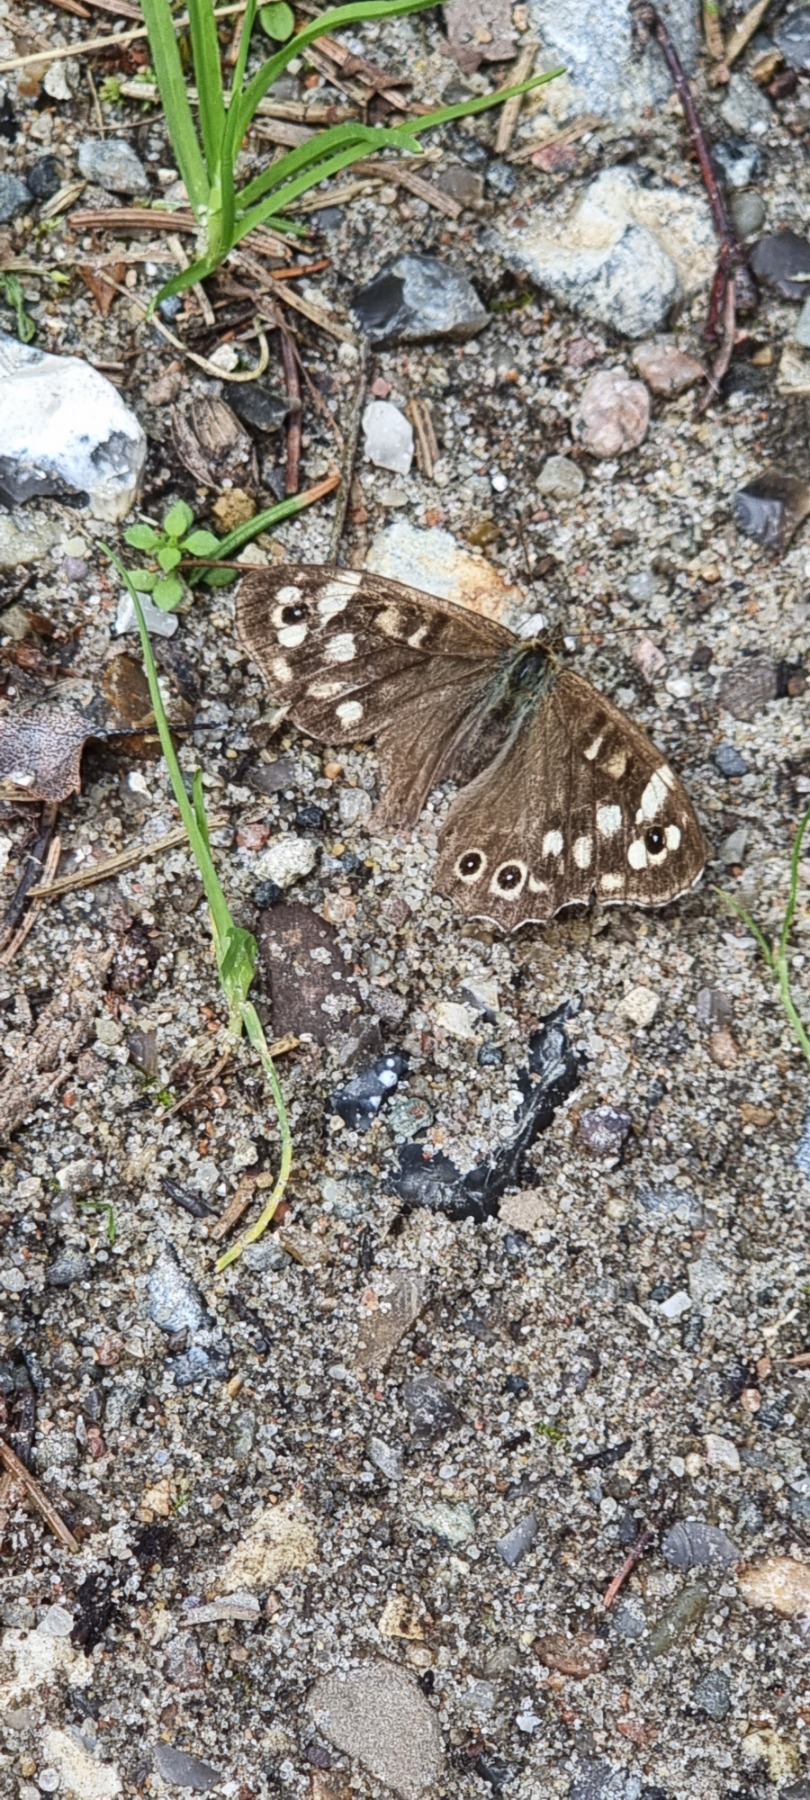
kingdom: Animalia
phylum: Arthropoda
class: Insecta
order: Lepidoptera
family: Nymphalidae
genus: Pararge
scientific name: Pararge aegeria
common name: Skovrandøje
